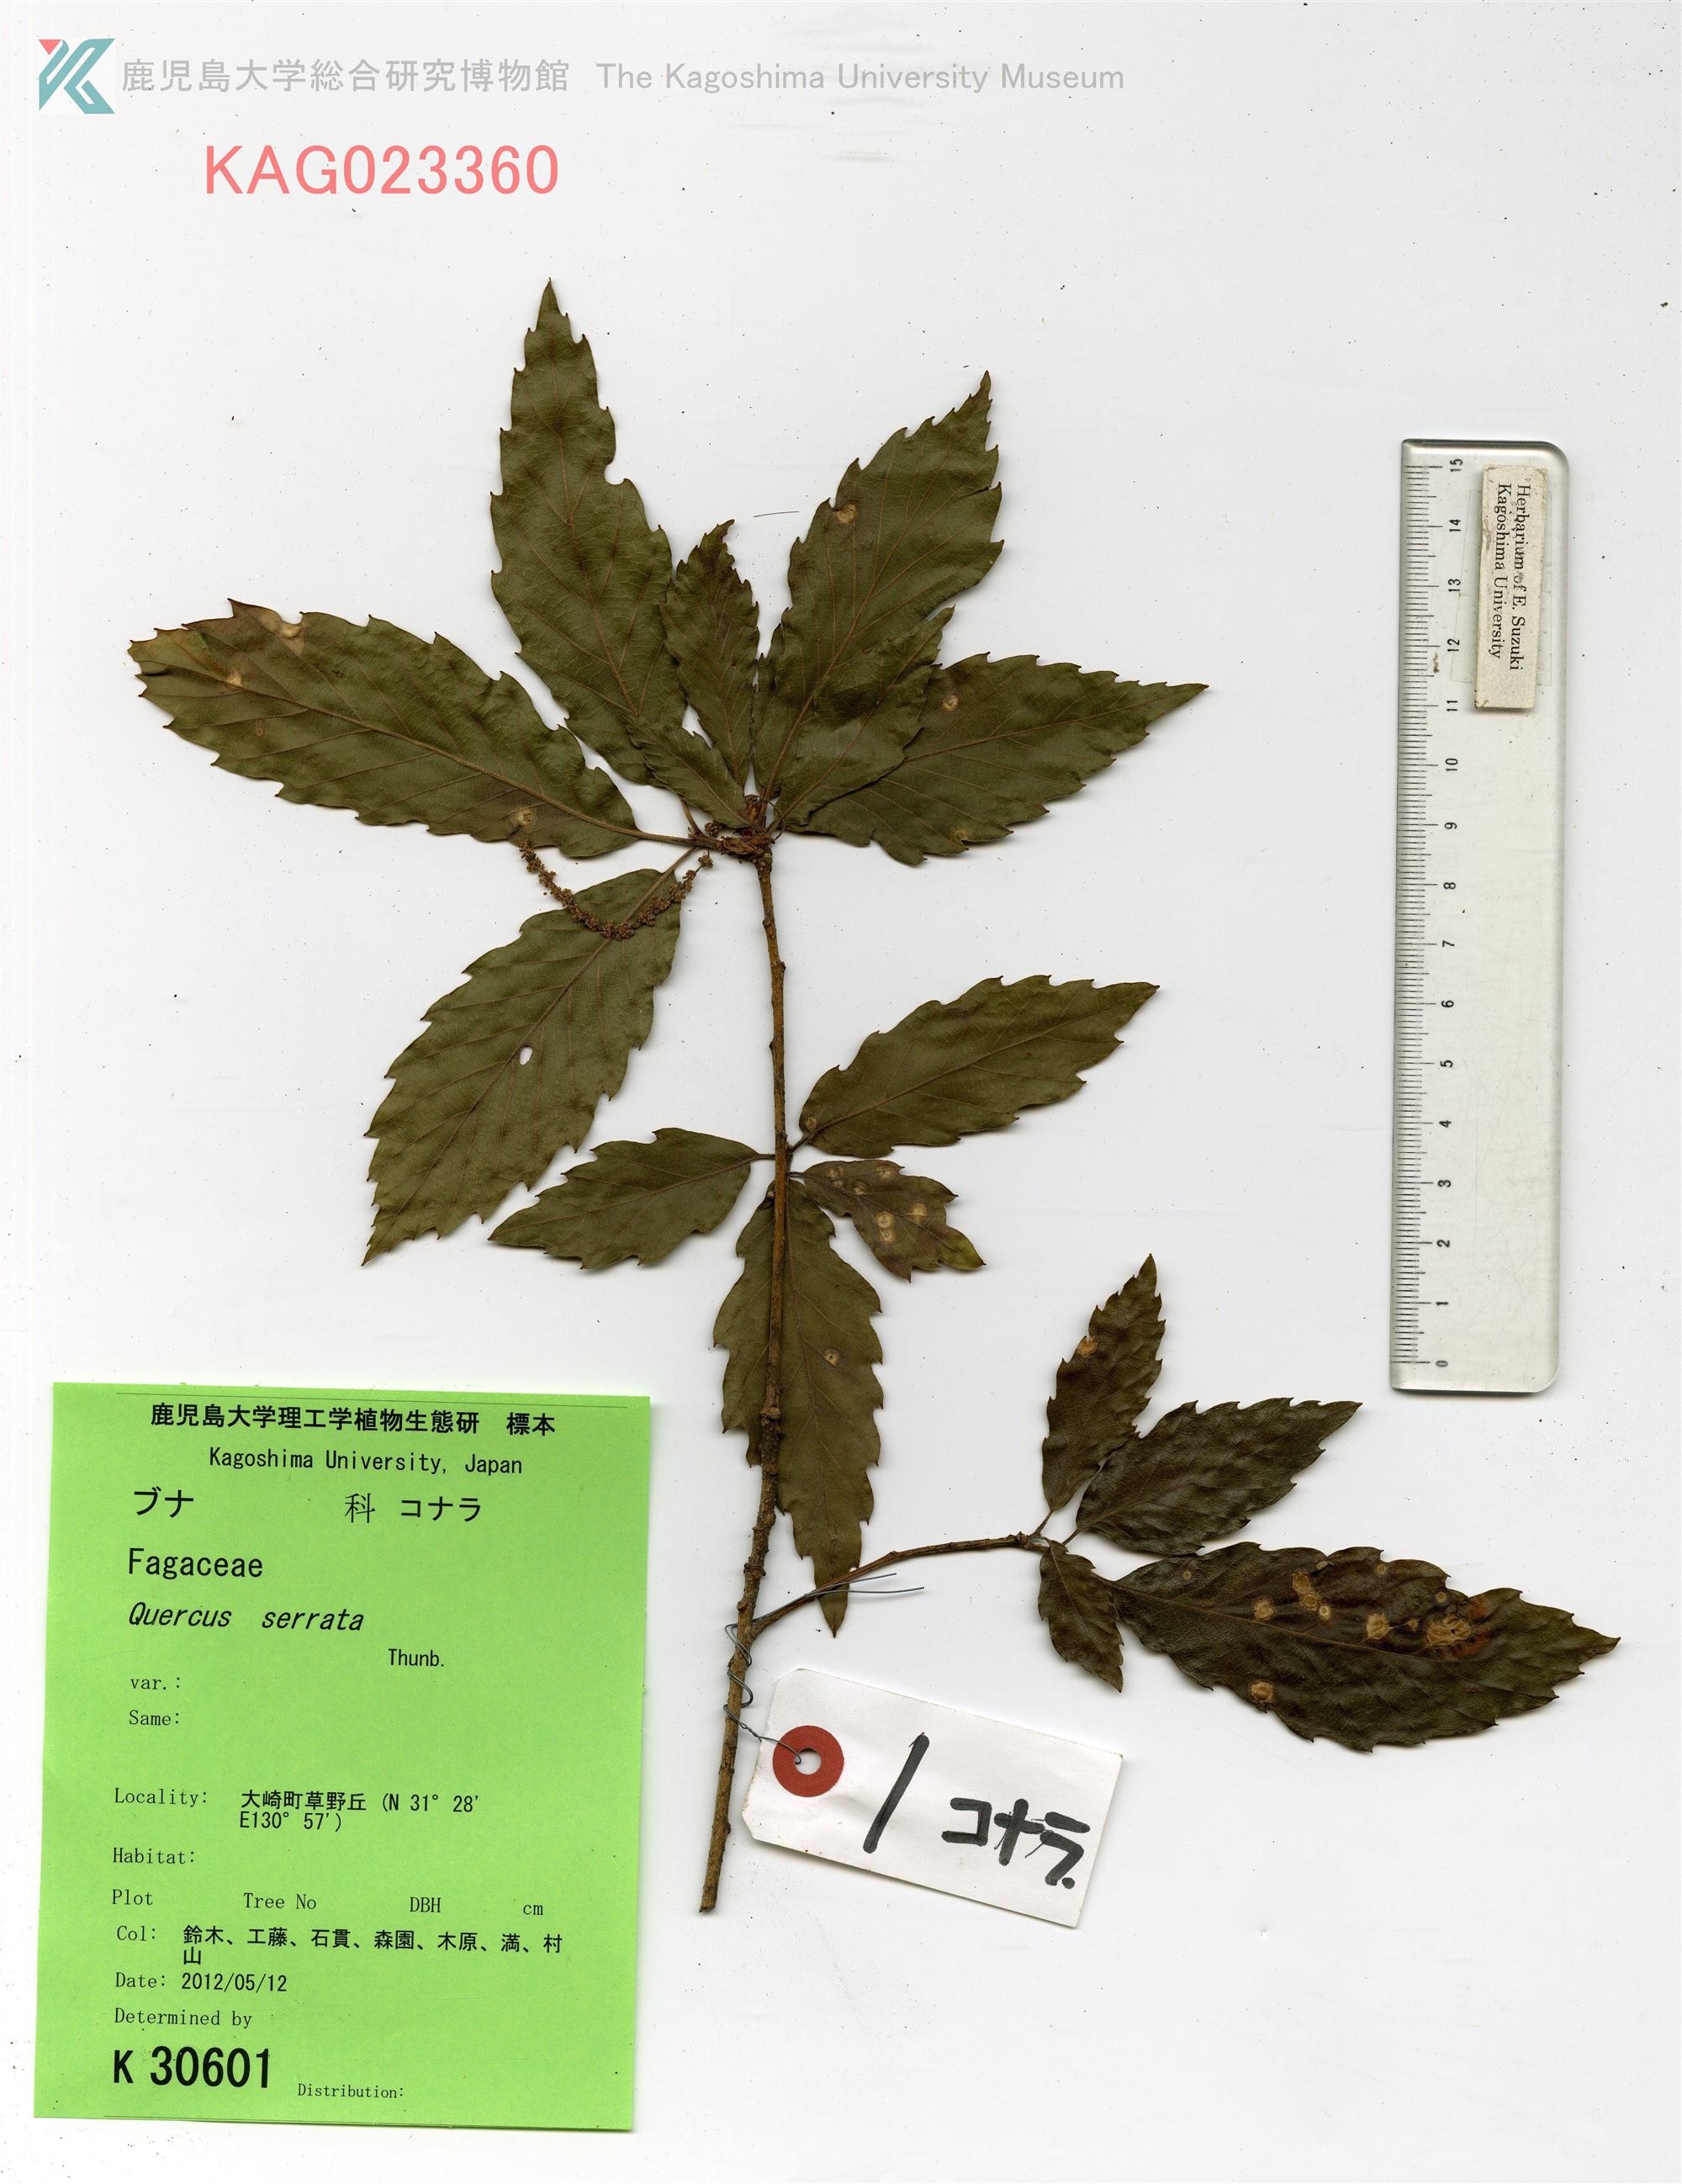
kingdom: Plantae
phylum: Tracheophyta
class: Magnoliopsida
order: Fagales
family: Fagaceae
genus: Quercus
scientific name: Quercus serrata
